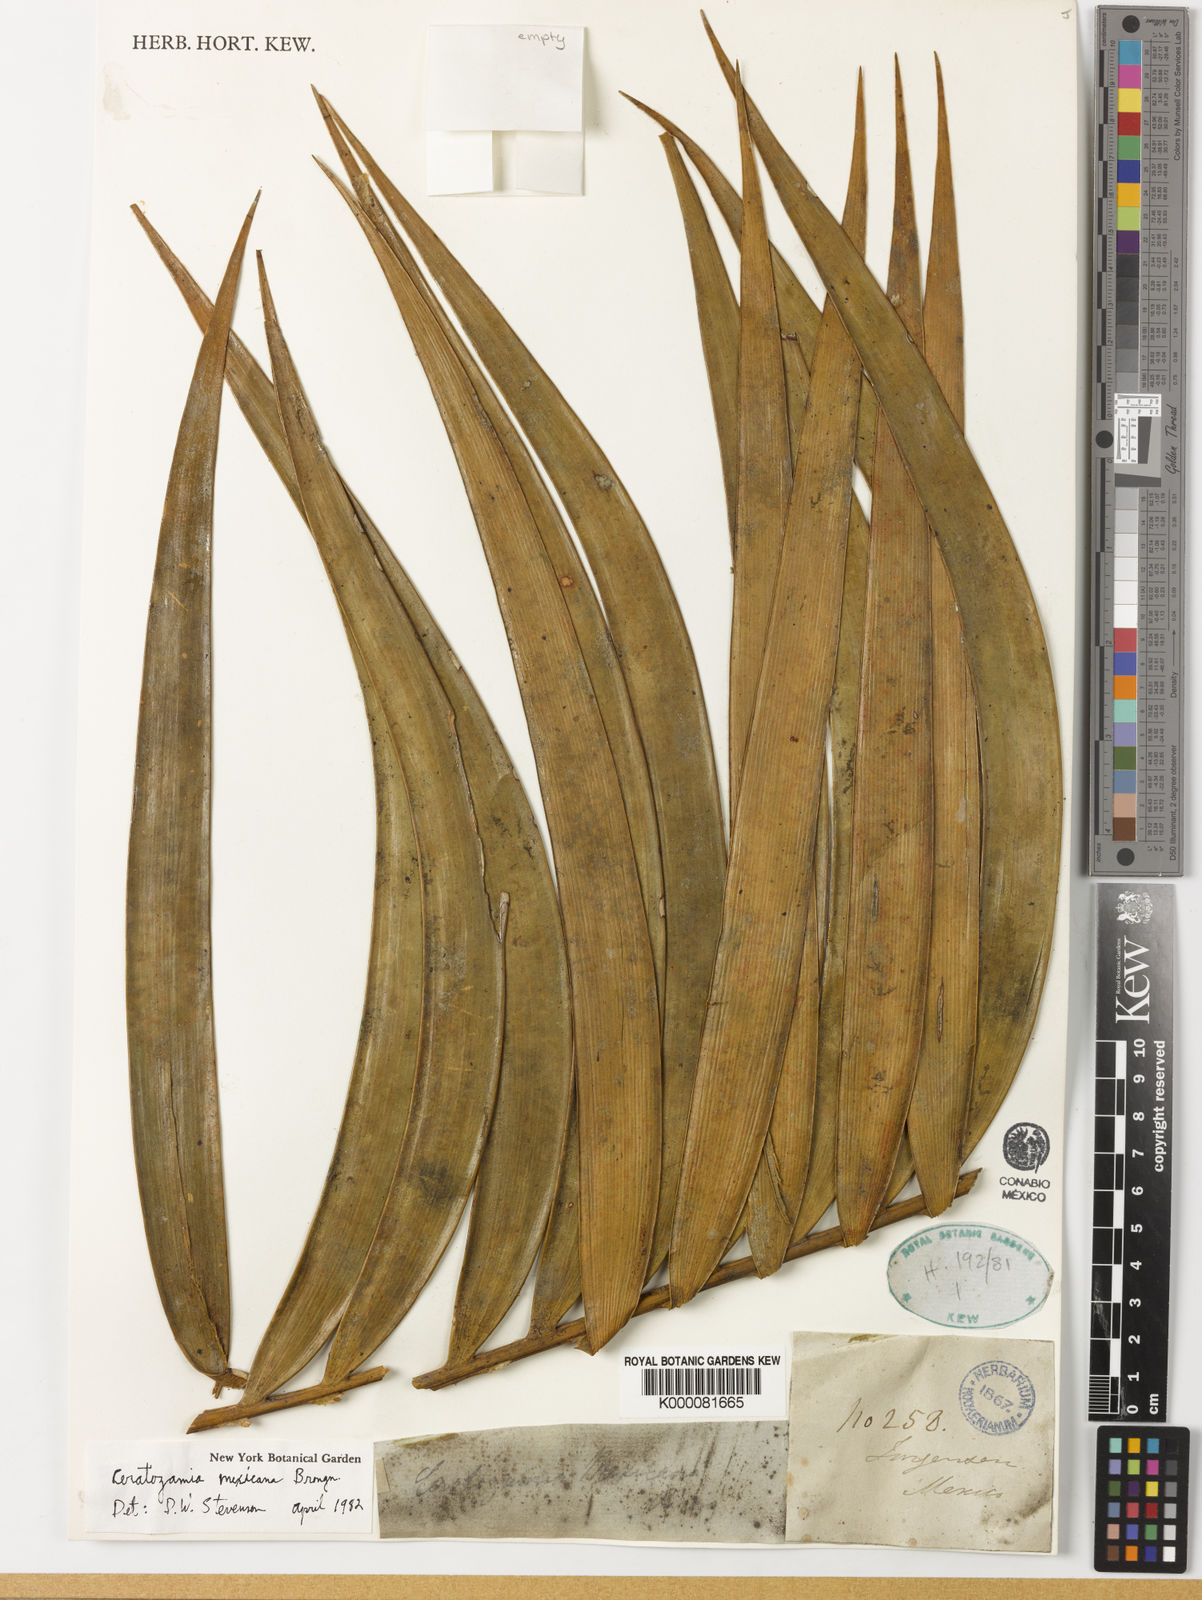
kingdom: Plantae
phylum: Tracheophyta
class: Cycadopsida
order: Cycadales
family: Zamiaceae
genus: Ceratozamia
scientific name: Ceratozamia mexicana
